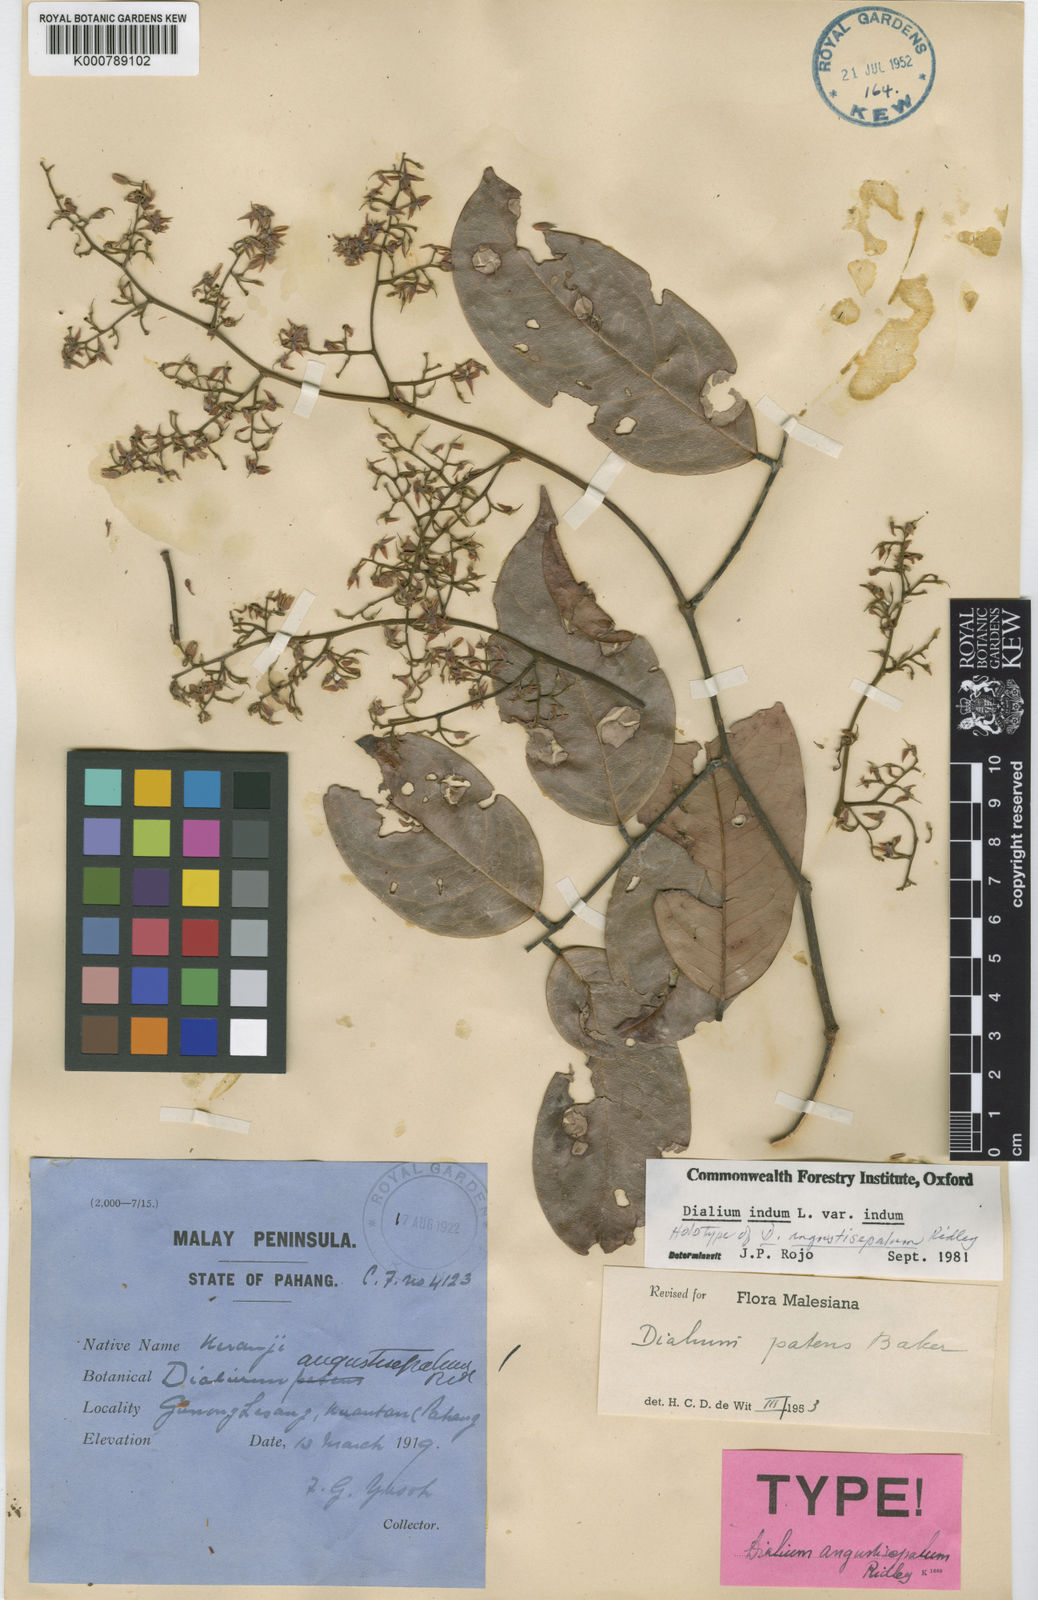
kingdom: Plantae
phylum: Tracheophyta
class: Magnoliopsida
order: Fabales
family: Fabaceae
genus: Dialium
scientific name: Dialium indum
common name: Tamarind-plum
